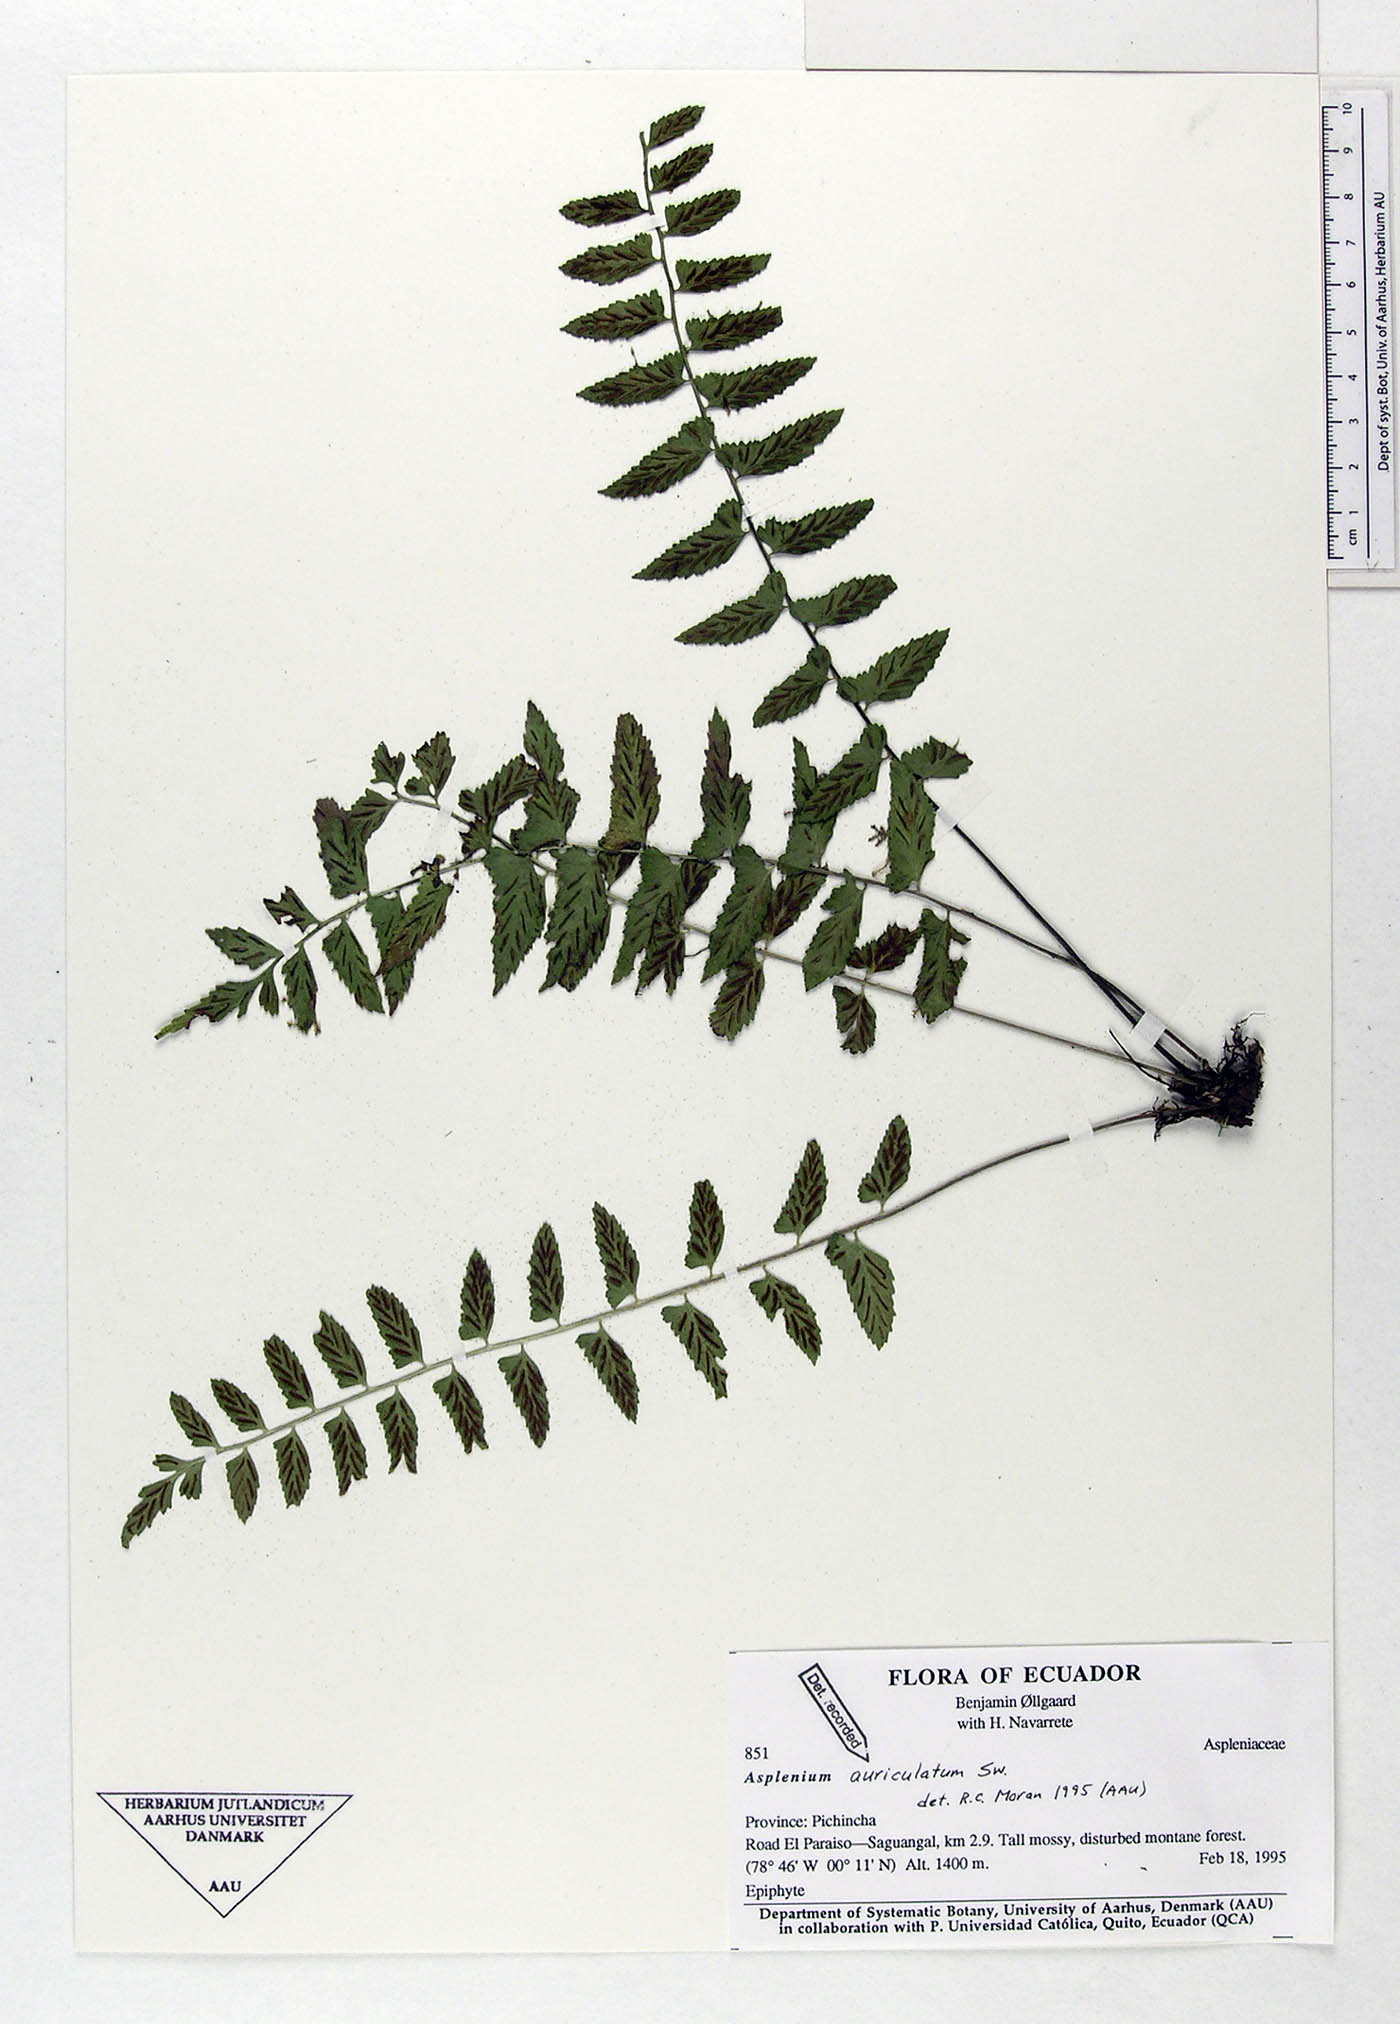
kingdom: Plantae
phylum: Tracheophyta
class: Polypodiopsida
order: Polypodiales
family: Aspleniaceae
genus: Asplenium
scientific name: Asplenium auriculatum
